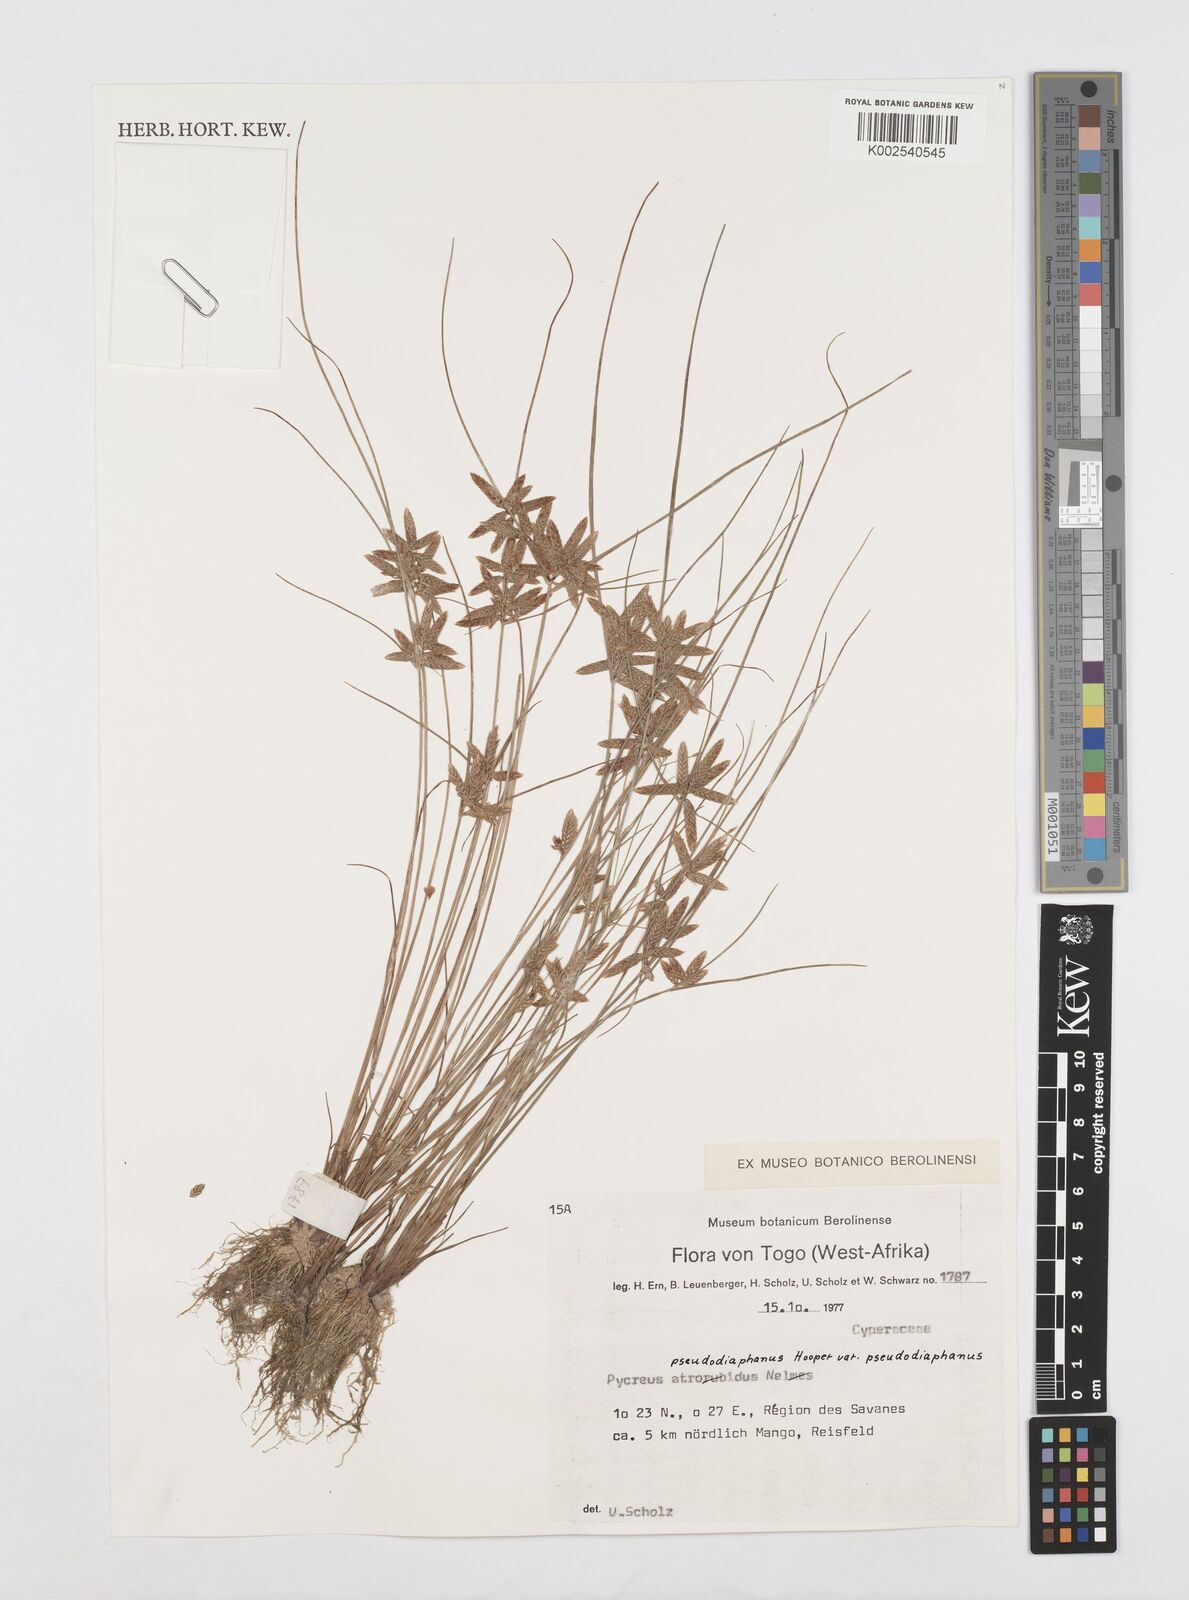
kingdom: Plantae
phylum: Tracheophyta
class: Liliopsida
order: Poales
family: Cyperaceae
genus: Cyperus
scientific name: Cyperus pseudodiaphanus
